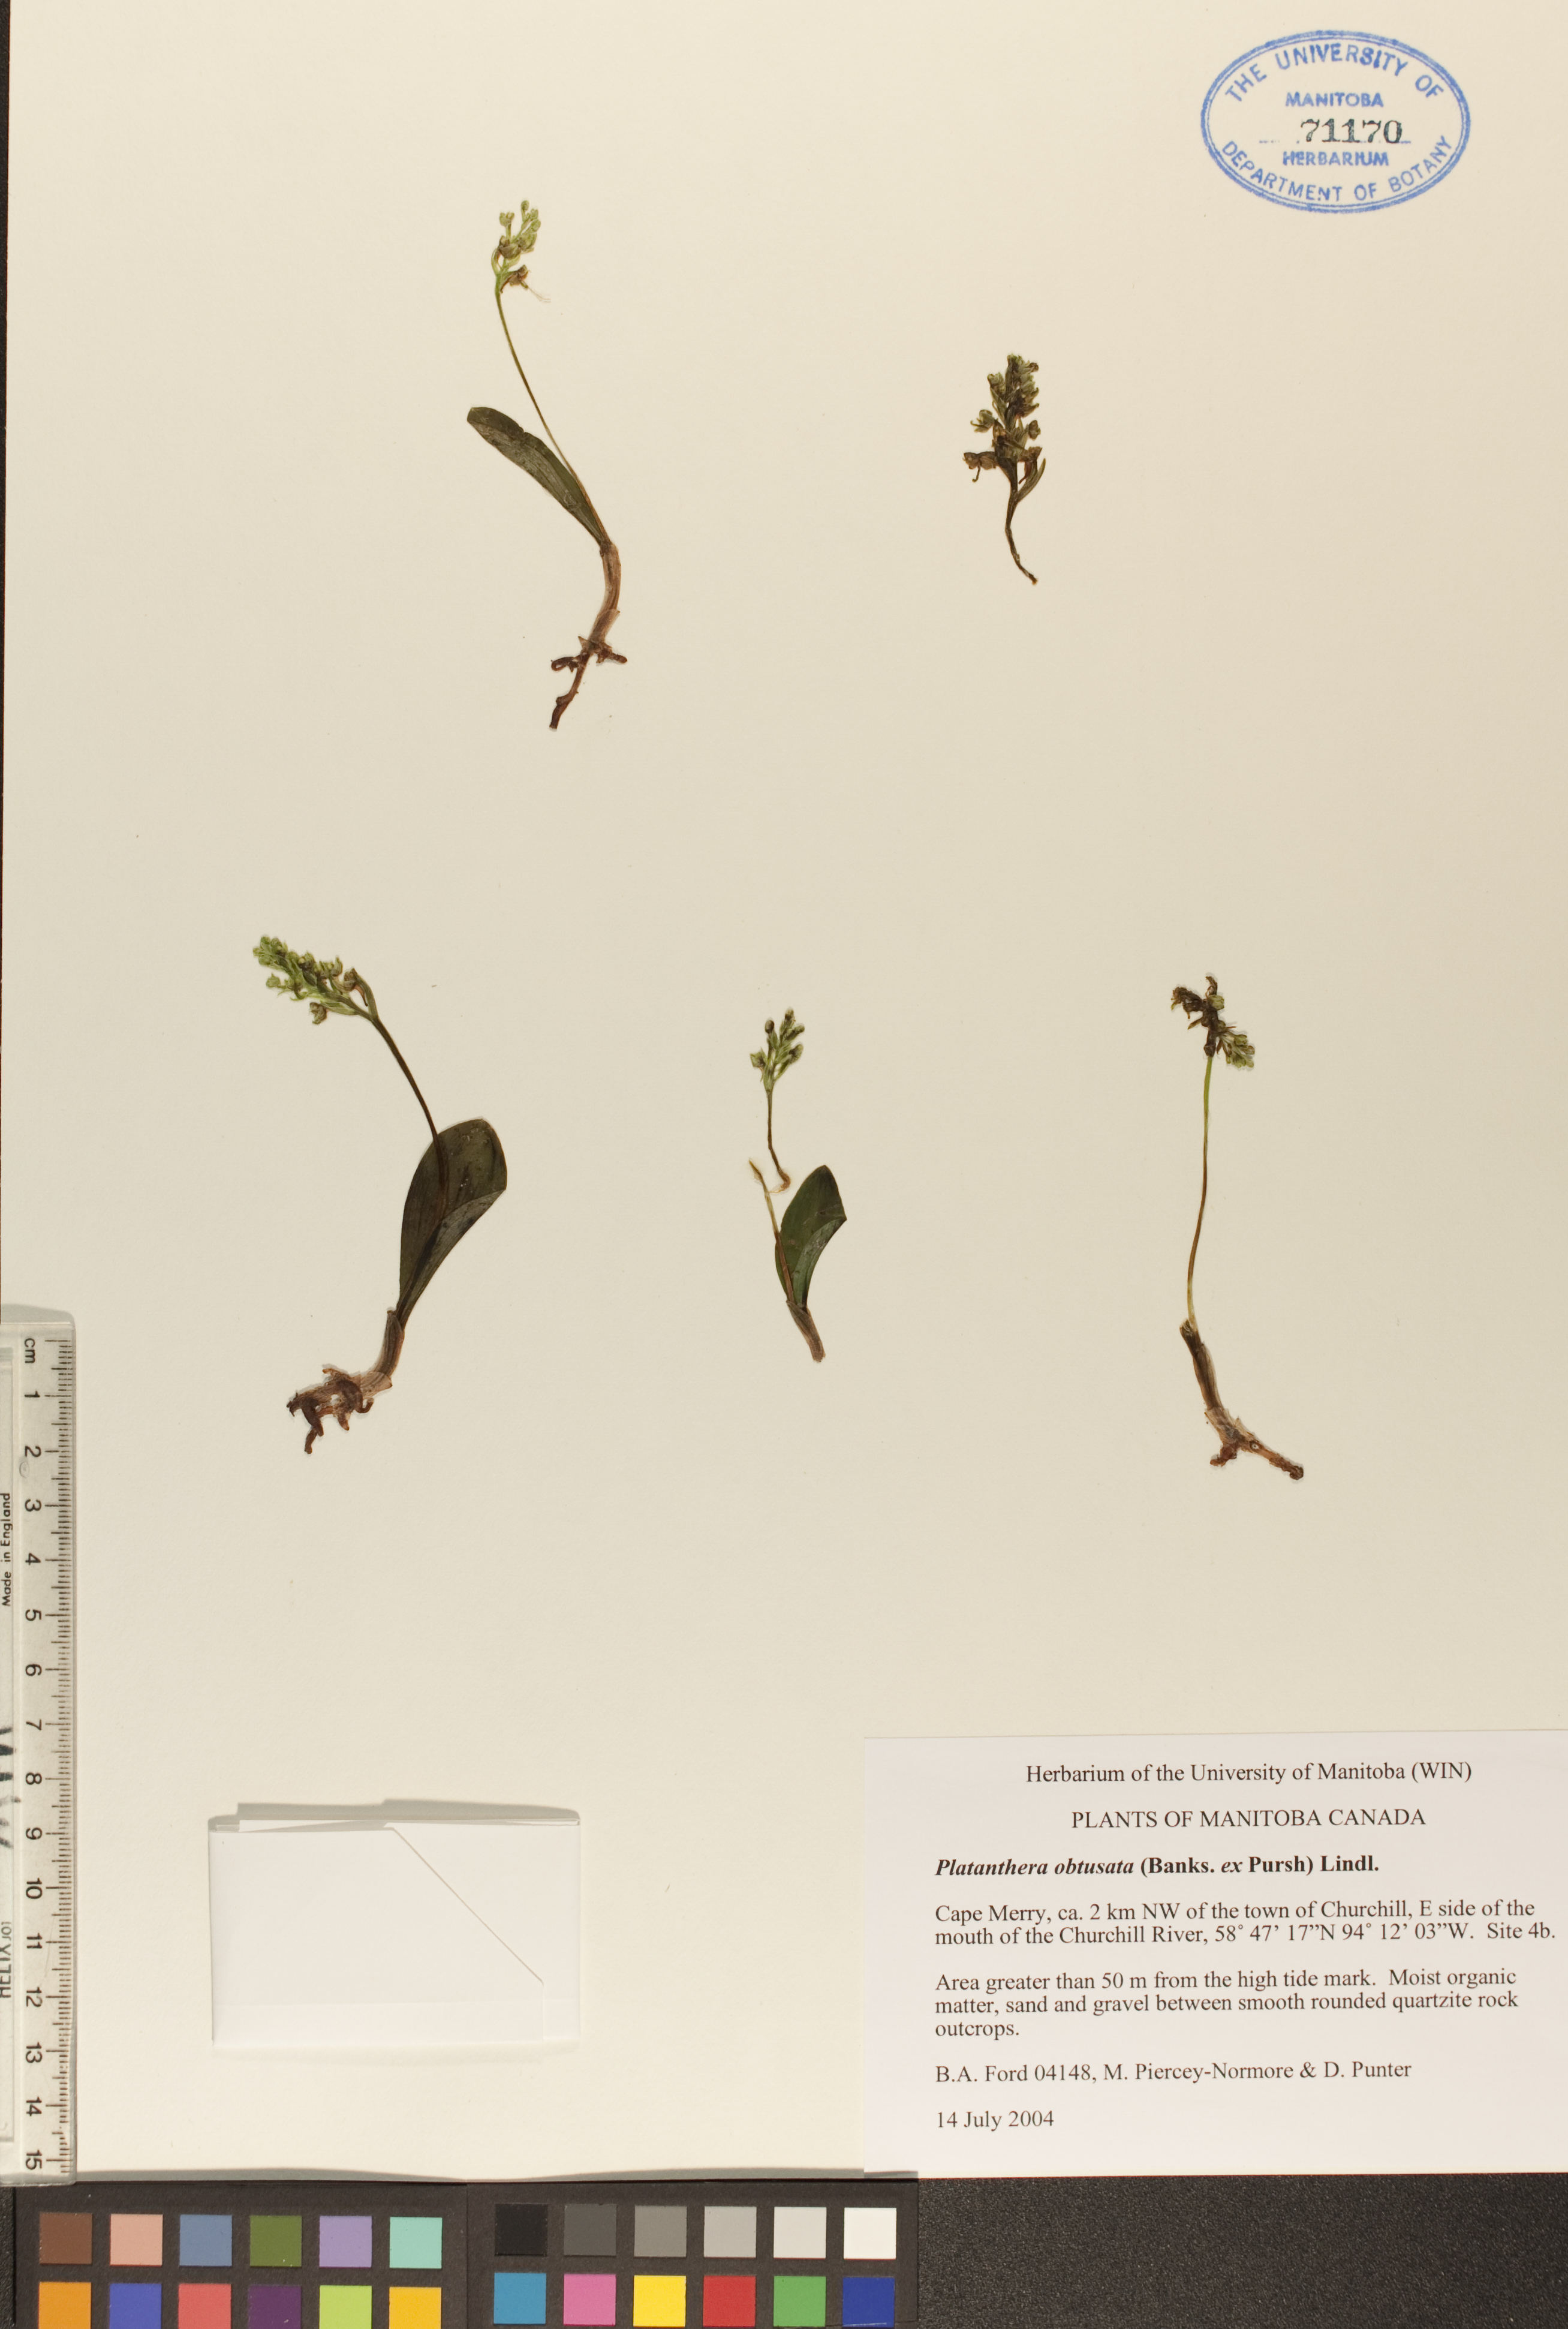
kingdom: Plantae
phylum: Tracheophyta
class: Liliopsida
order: Asparagales
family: Orchidaceae
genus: Platanthera
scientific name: Platanthera obtusata
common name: Blunt bog orchid
